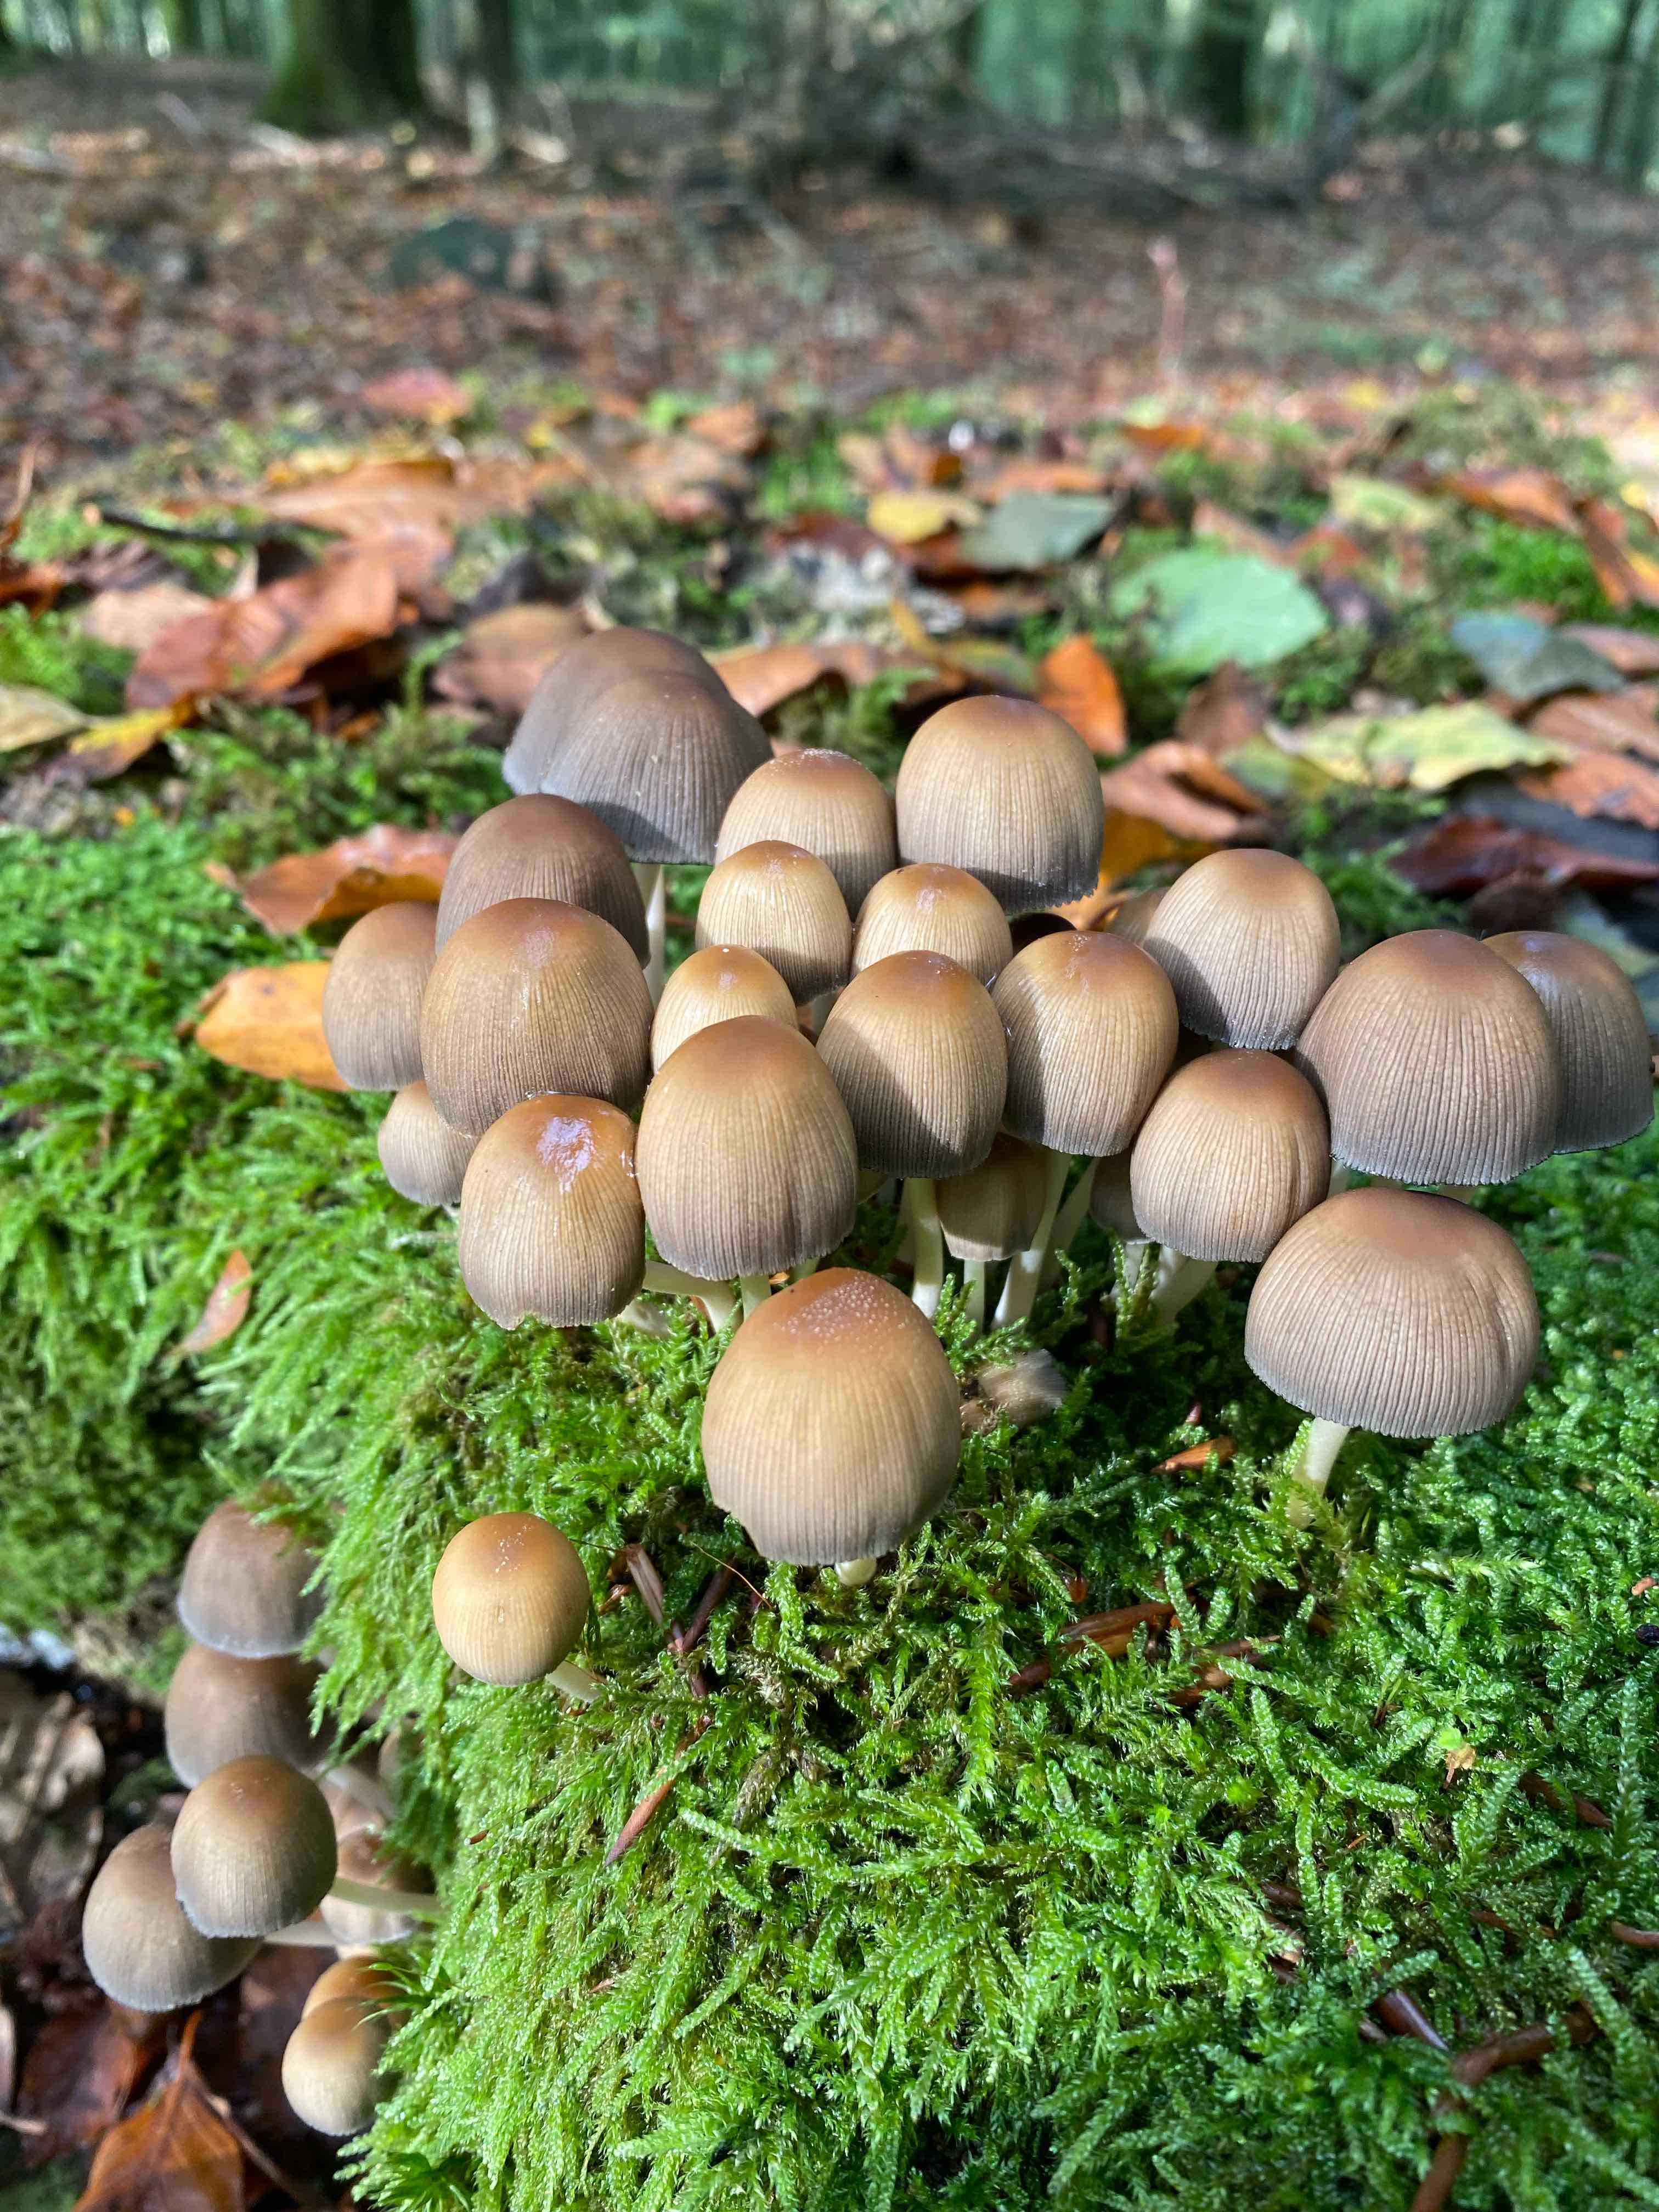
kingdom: Fungi
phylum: Basidiomycota
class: Agaricomycetes
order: Agaricales
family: Psathyrellaceae
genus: Coprinellus
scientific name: Coprinellus micaceus
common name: glimmer-blækhat
